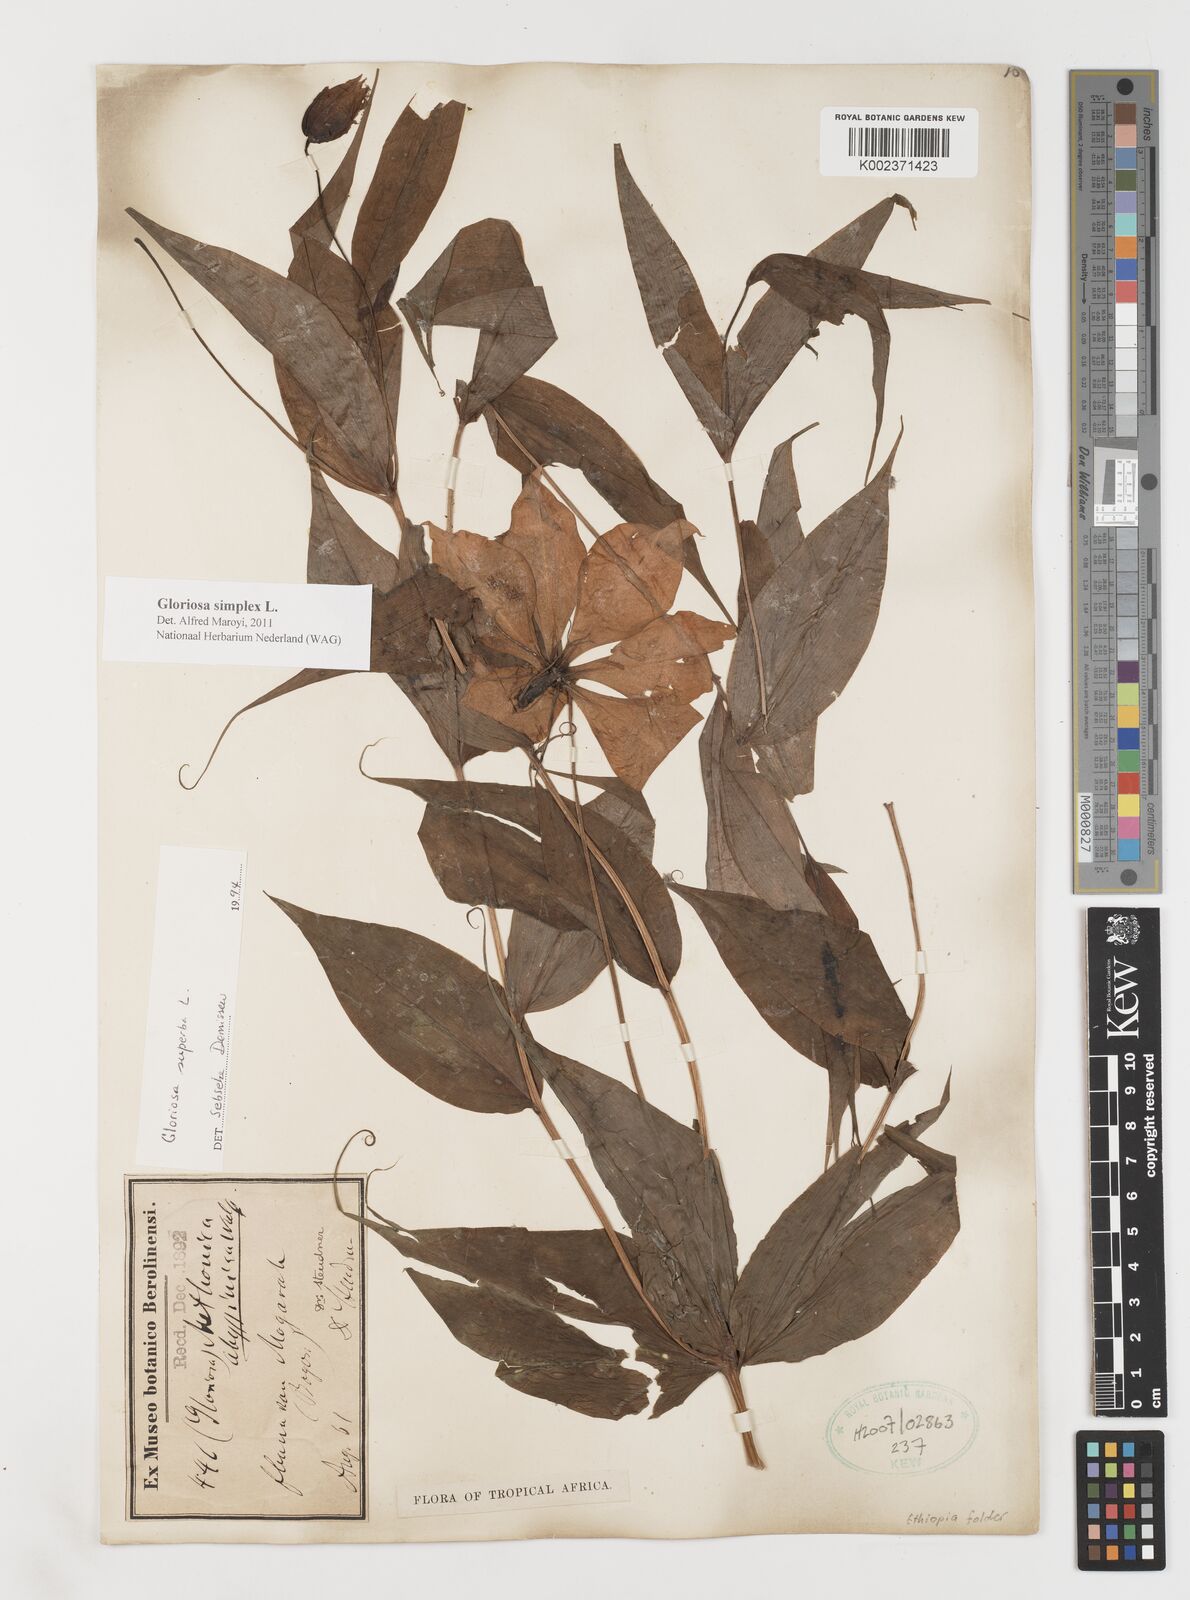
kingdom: Plantae
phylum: Tracheophyta
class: Liliopsida
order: Liliales
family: Colchicaceae
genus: Gloriosa
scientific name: Gloriosa simplex
